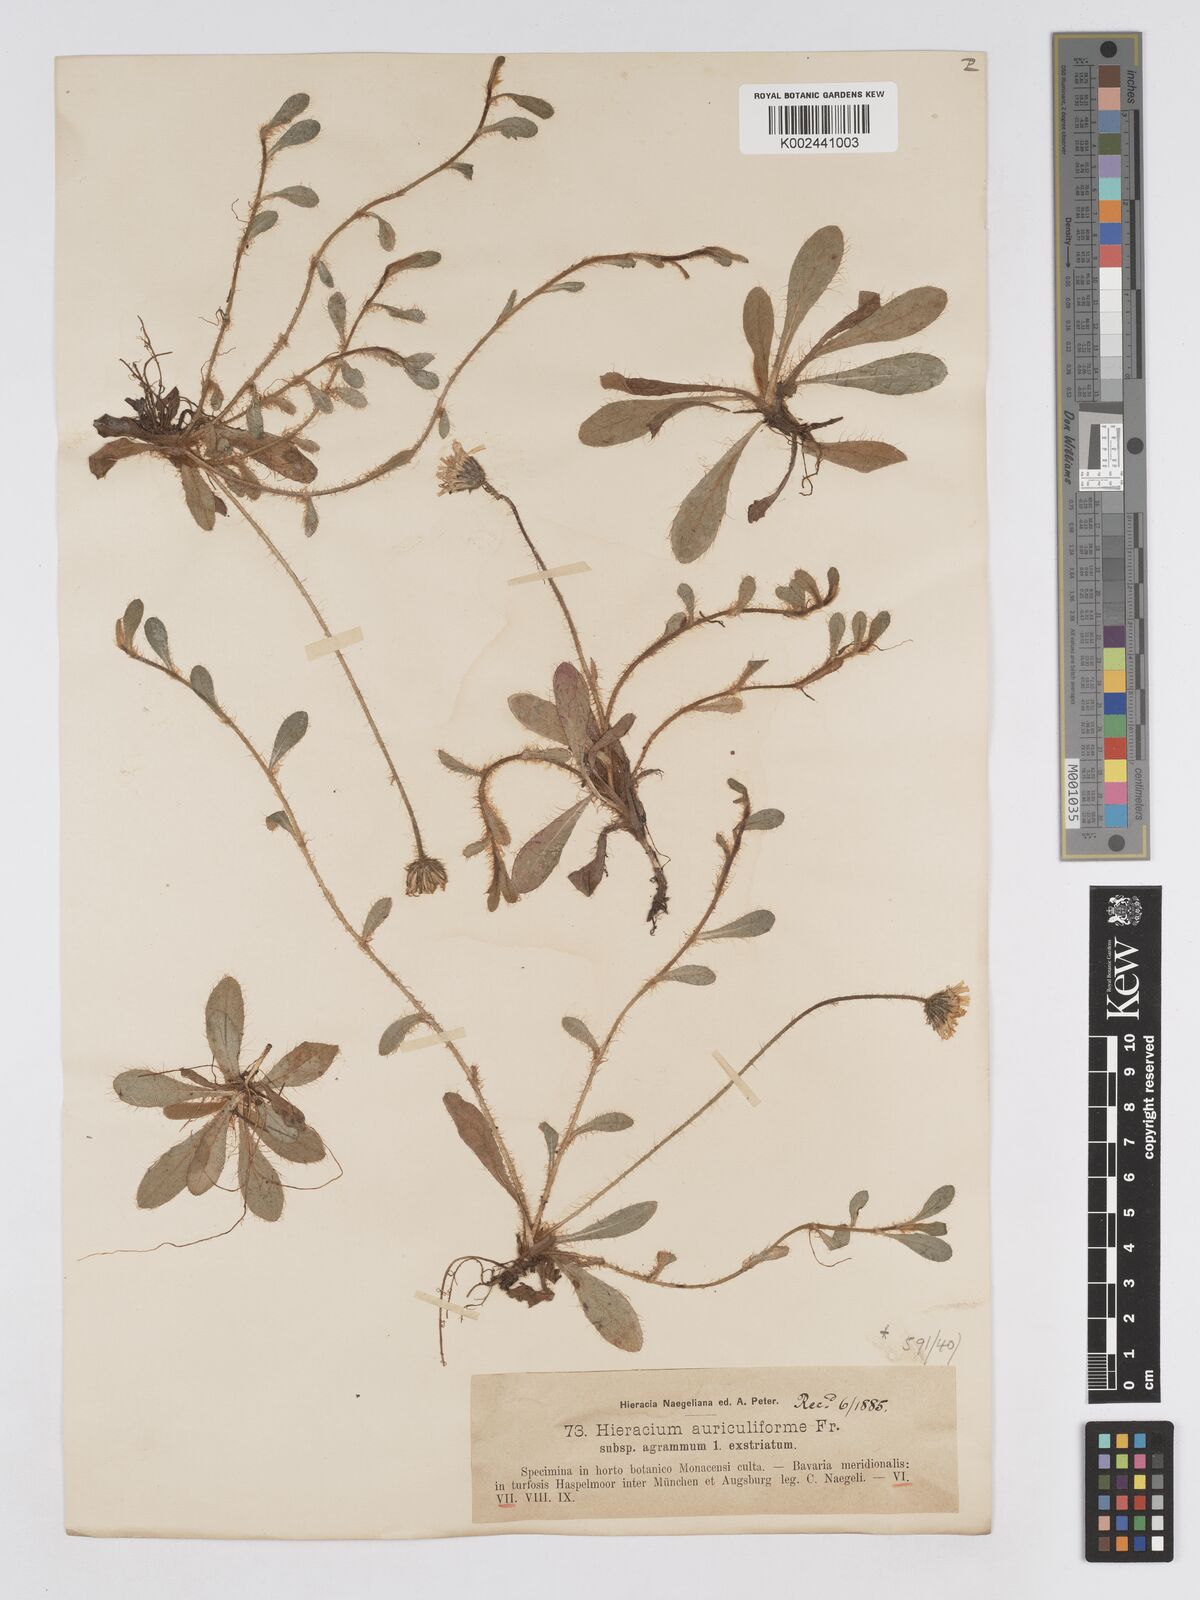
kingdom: Plantae
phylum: Tracheophyta
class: Magnoliopsida
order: Asterales
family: Asteraceae
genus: Pilosella
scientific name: Pilosella schultesii
